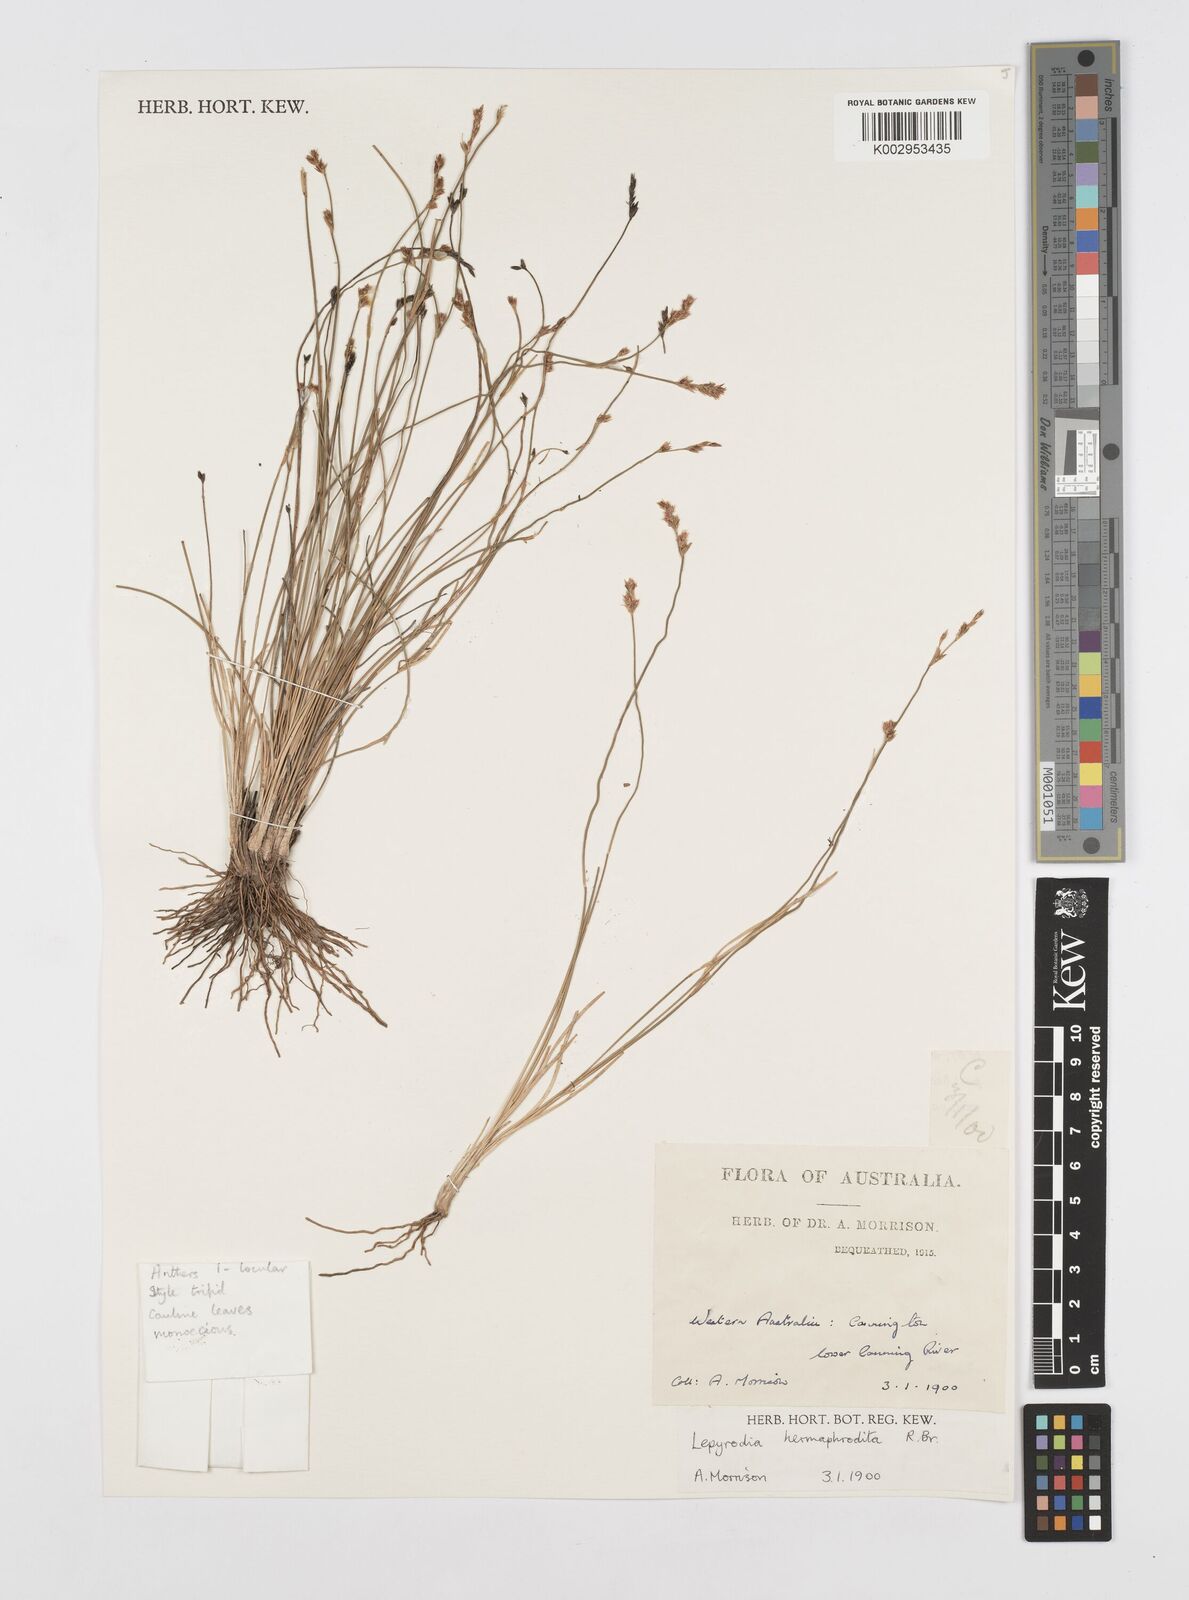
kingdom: Plantae
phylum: Tracheophyta
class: Liliopsida
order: Poales
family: Restionaceae
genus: Lepyrodia
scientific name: Lepyrodia hermaphrodita
